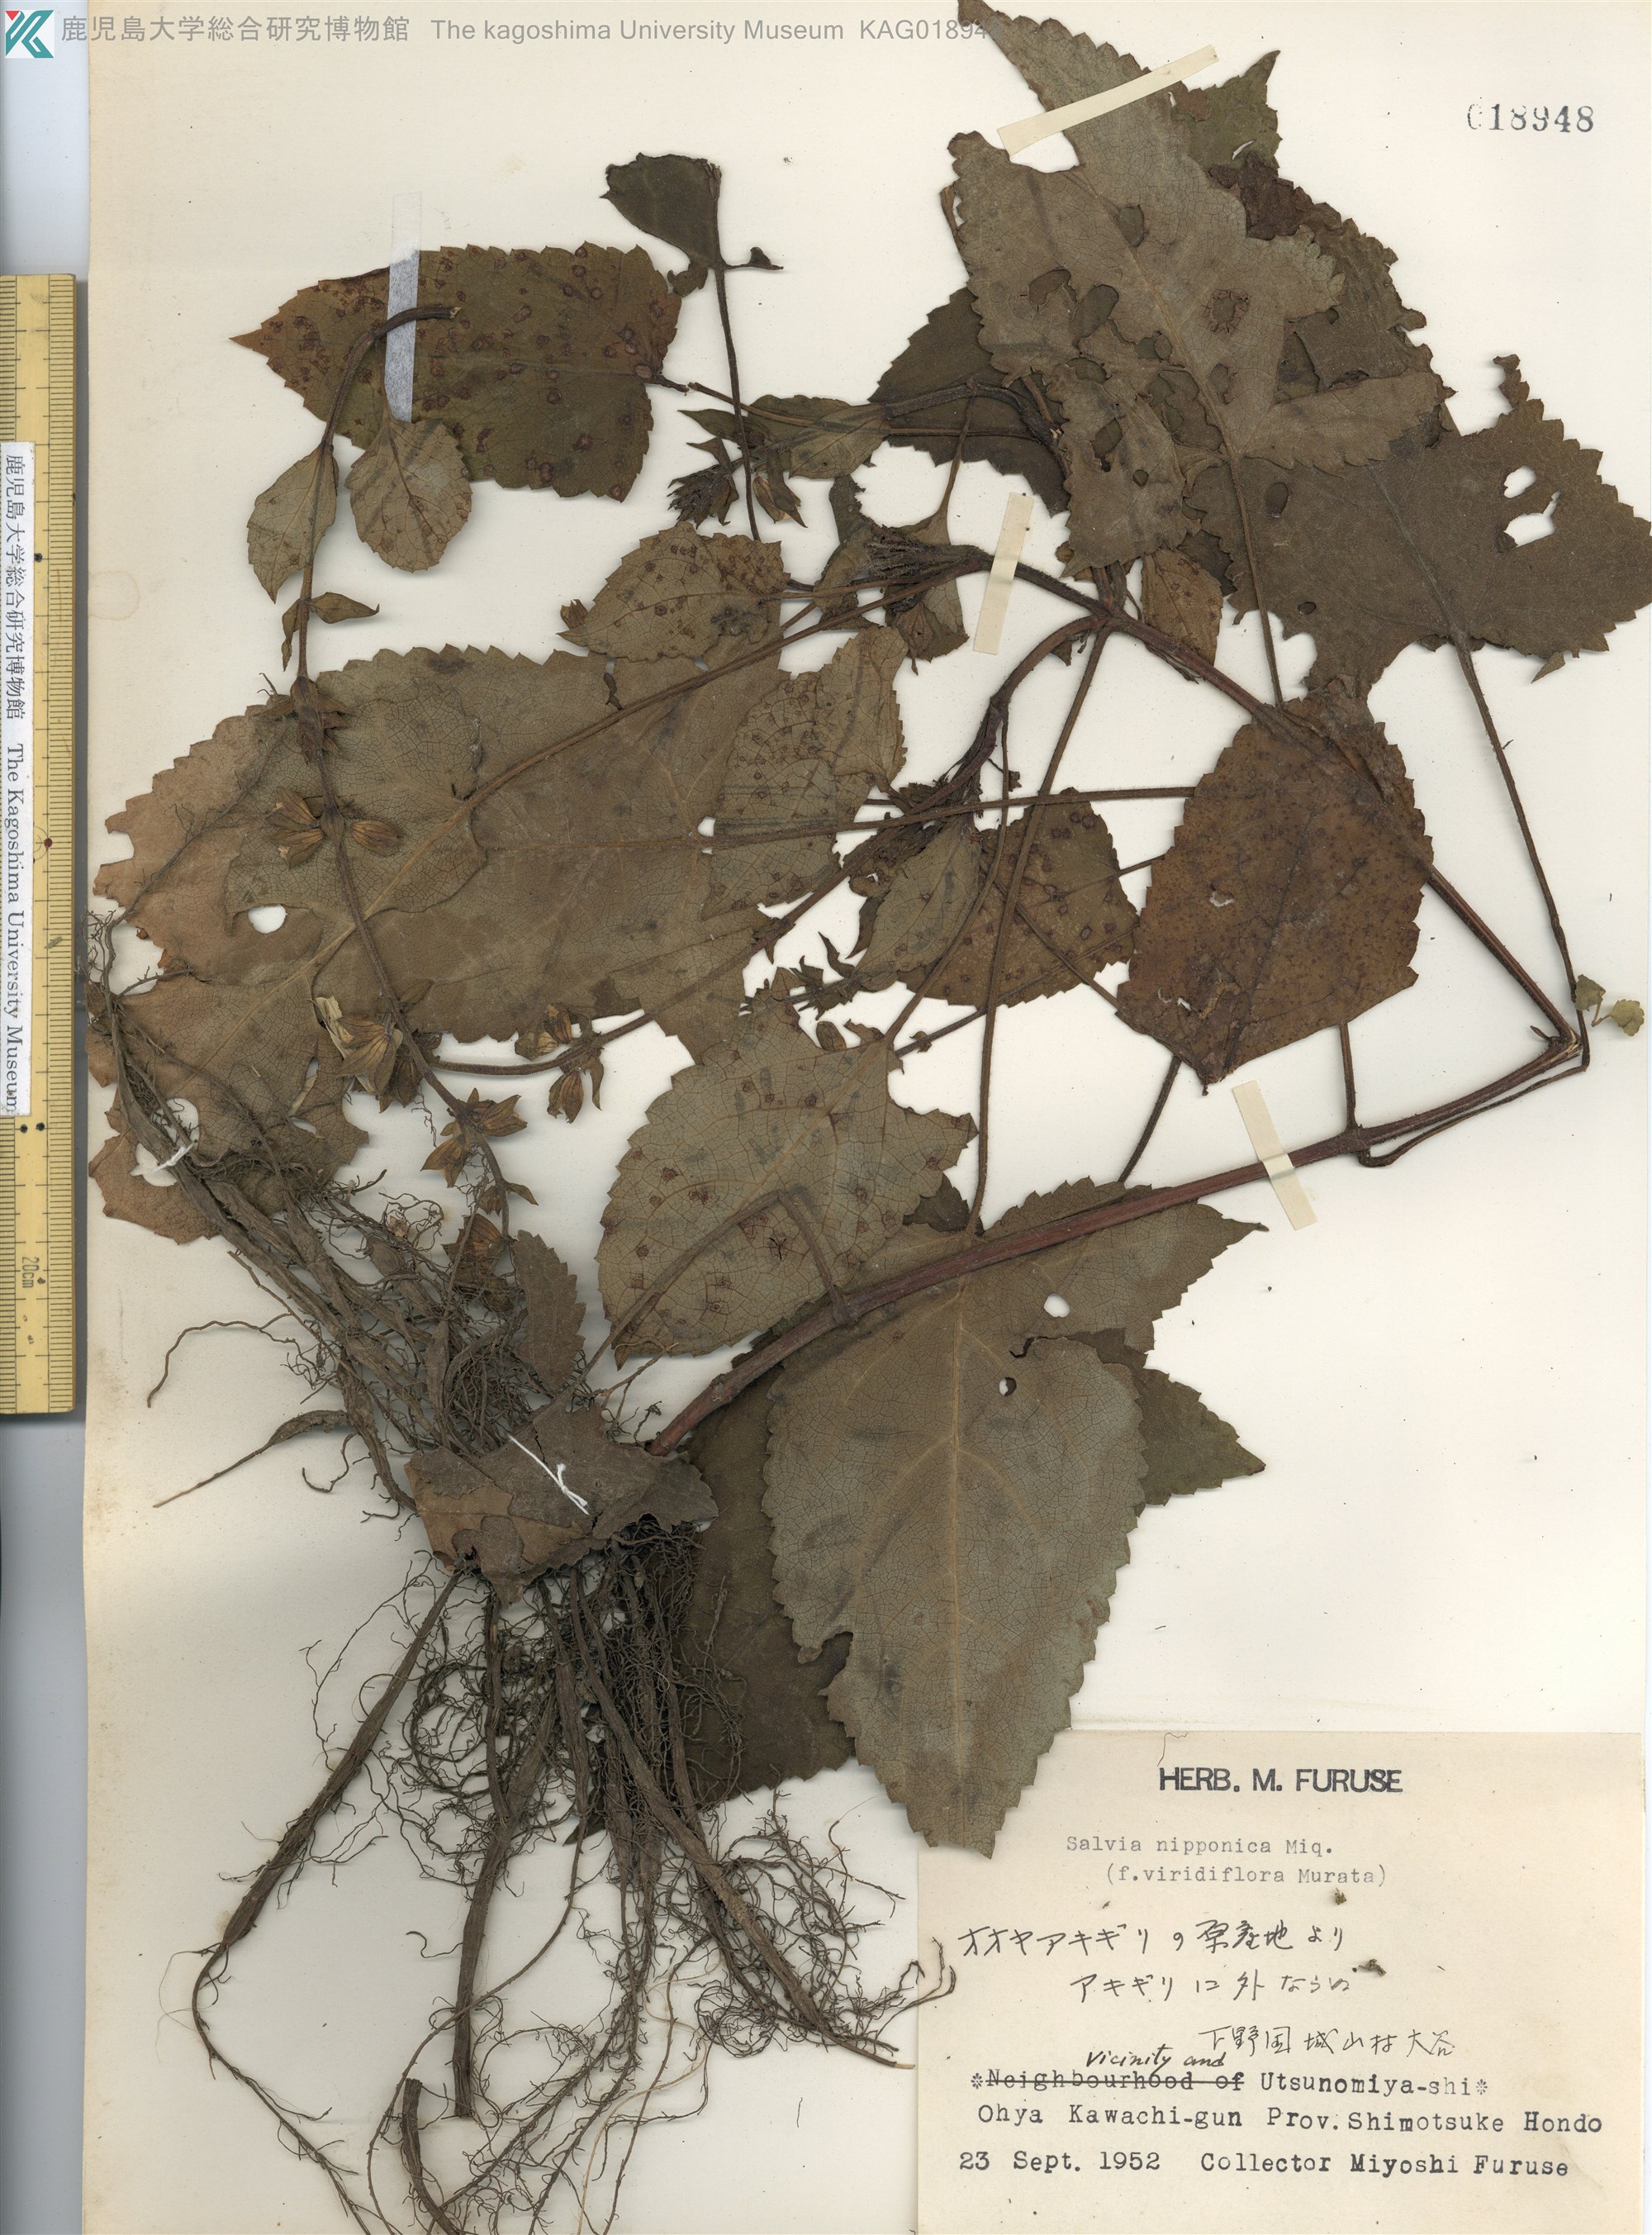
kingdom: Plantae
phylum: Tracheophyta
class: Magnoliopsida
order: Lamiales
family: Lamiaceae
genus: Salvia
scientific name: Salvia glabrescens
